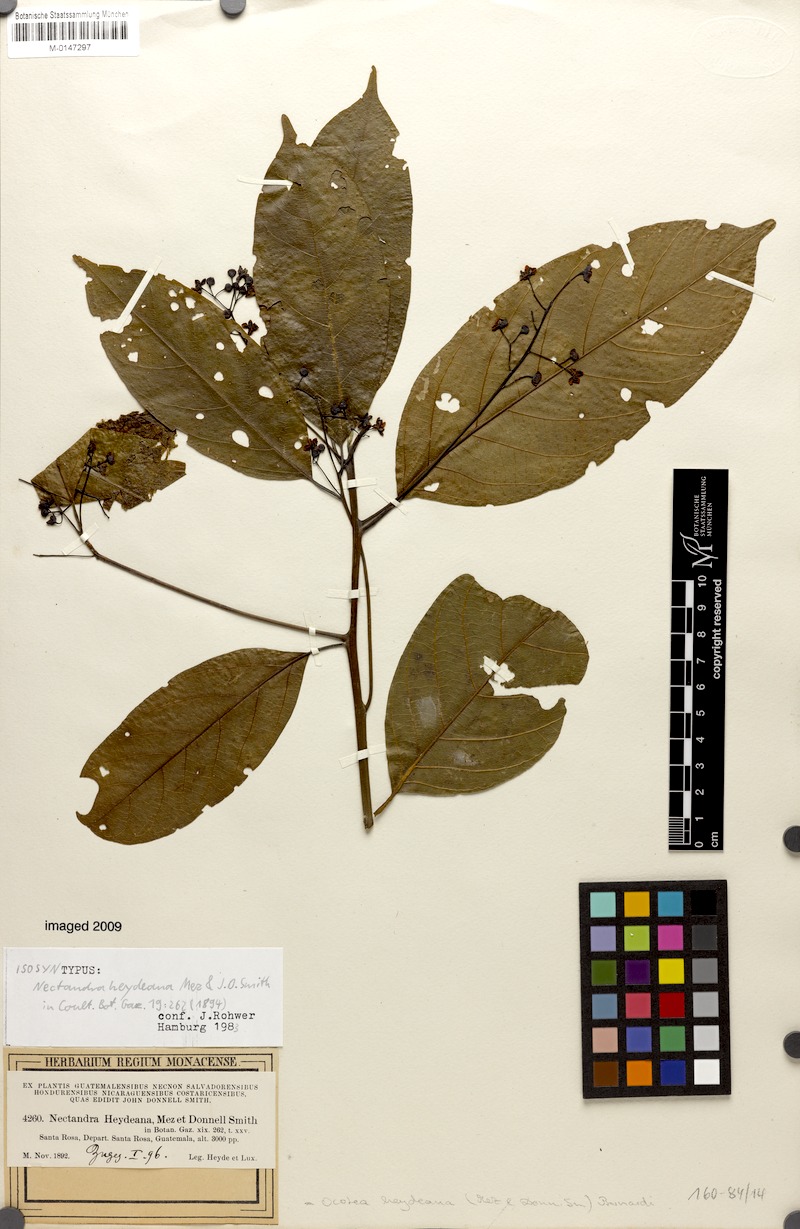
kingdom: Plantae
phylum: Tracheophyta
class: Magnoliopsida
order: Laurales
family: Lauraceae
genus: Ocotea
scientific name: Ocotea heydeana
